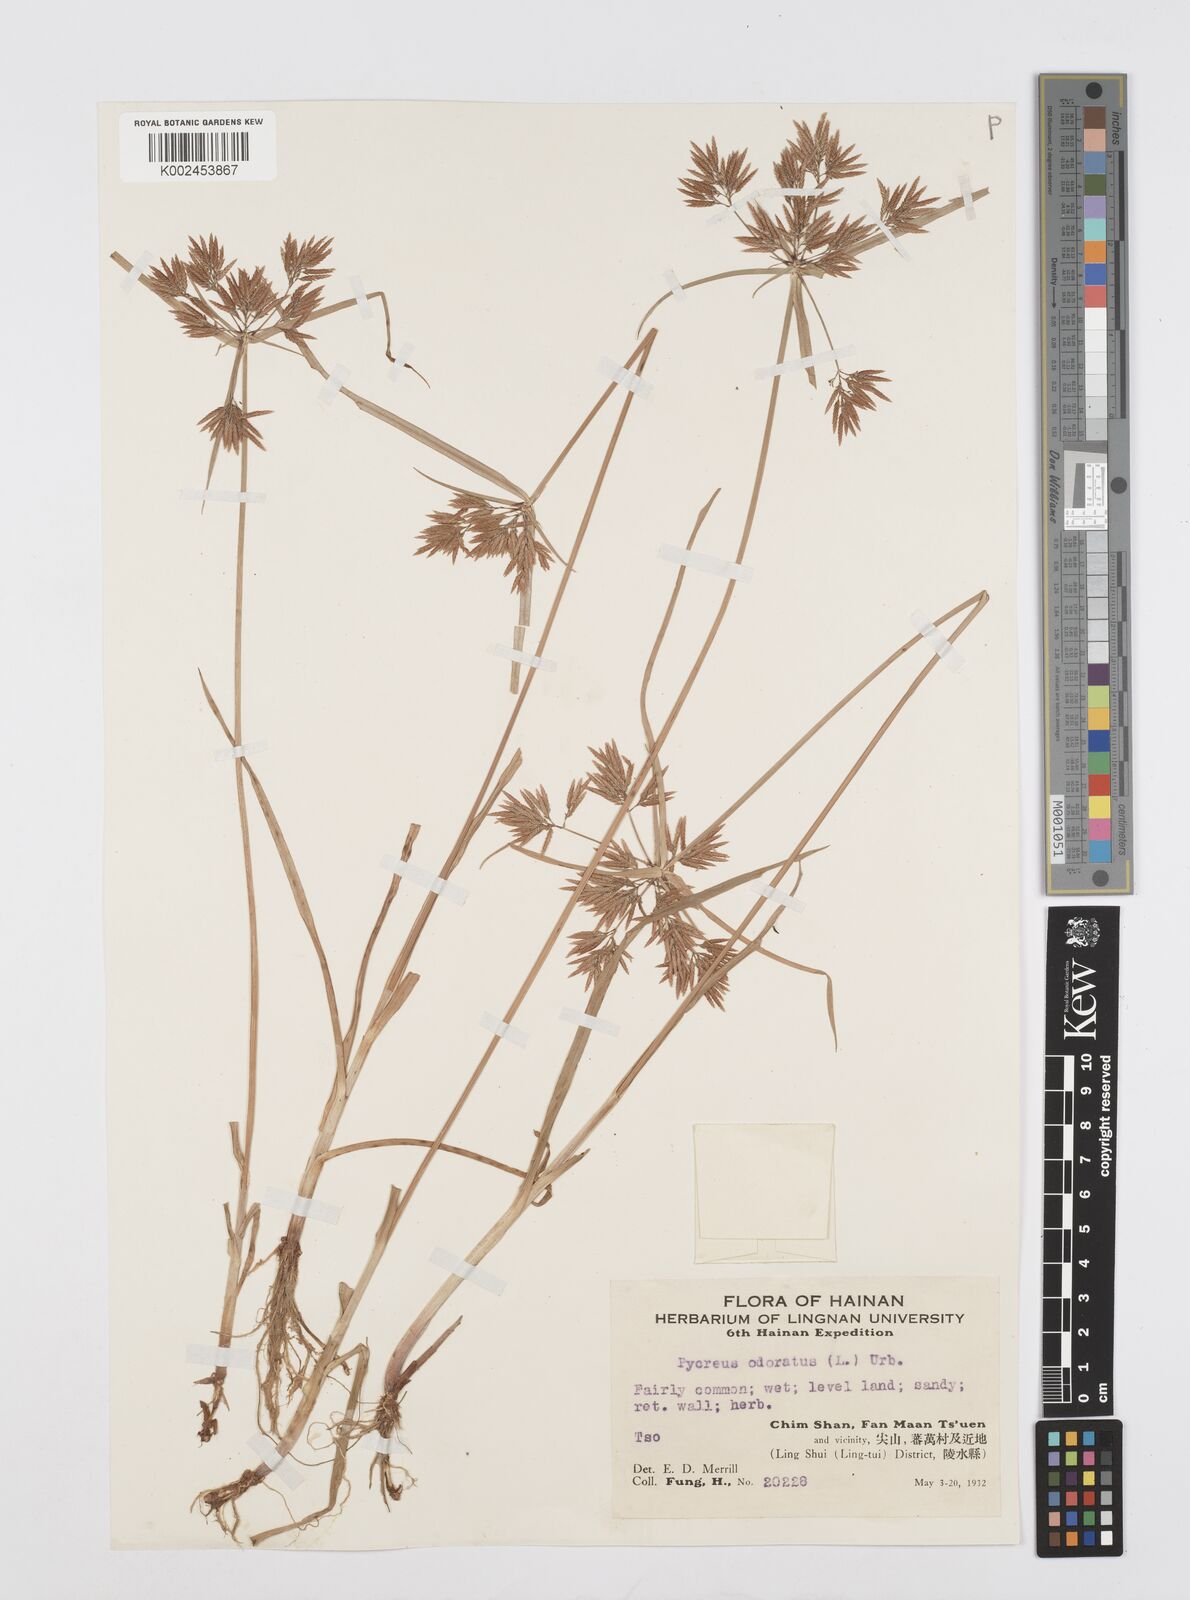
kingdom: Plantae
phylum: Tracheophyta
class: Liliopsida
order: Poales
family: Cyperaceae
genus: Cyperus
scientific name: Cyperus polystachyos
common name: Bunchy flat sedge
